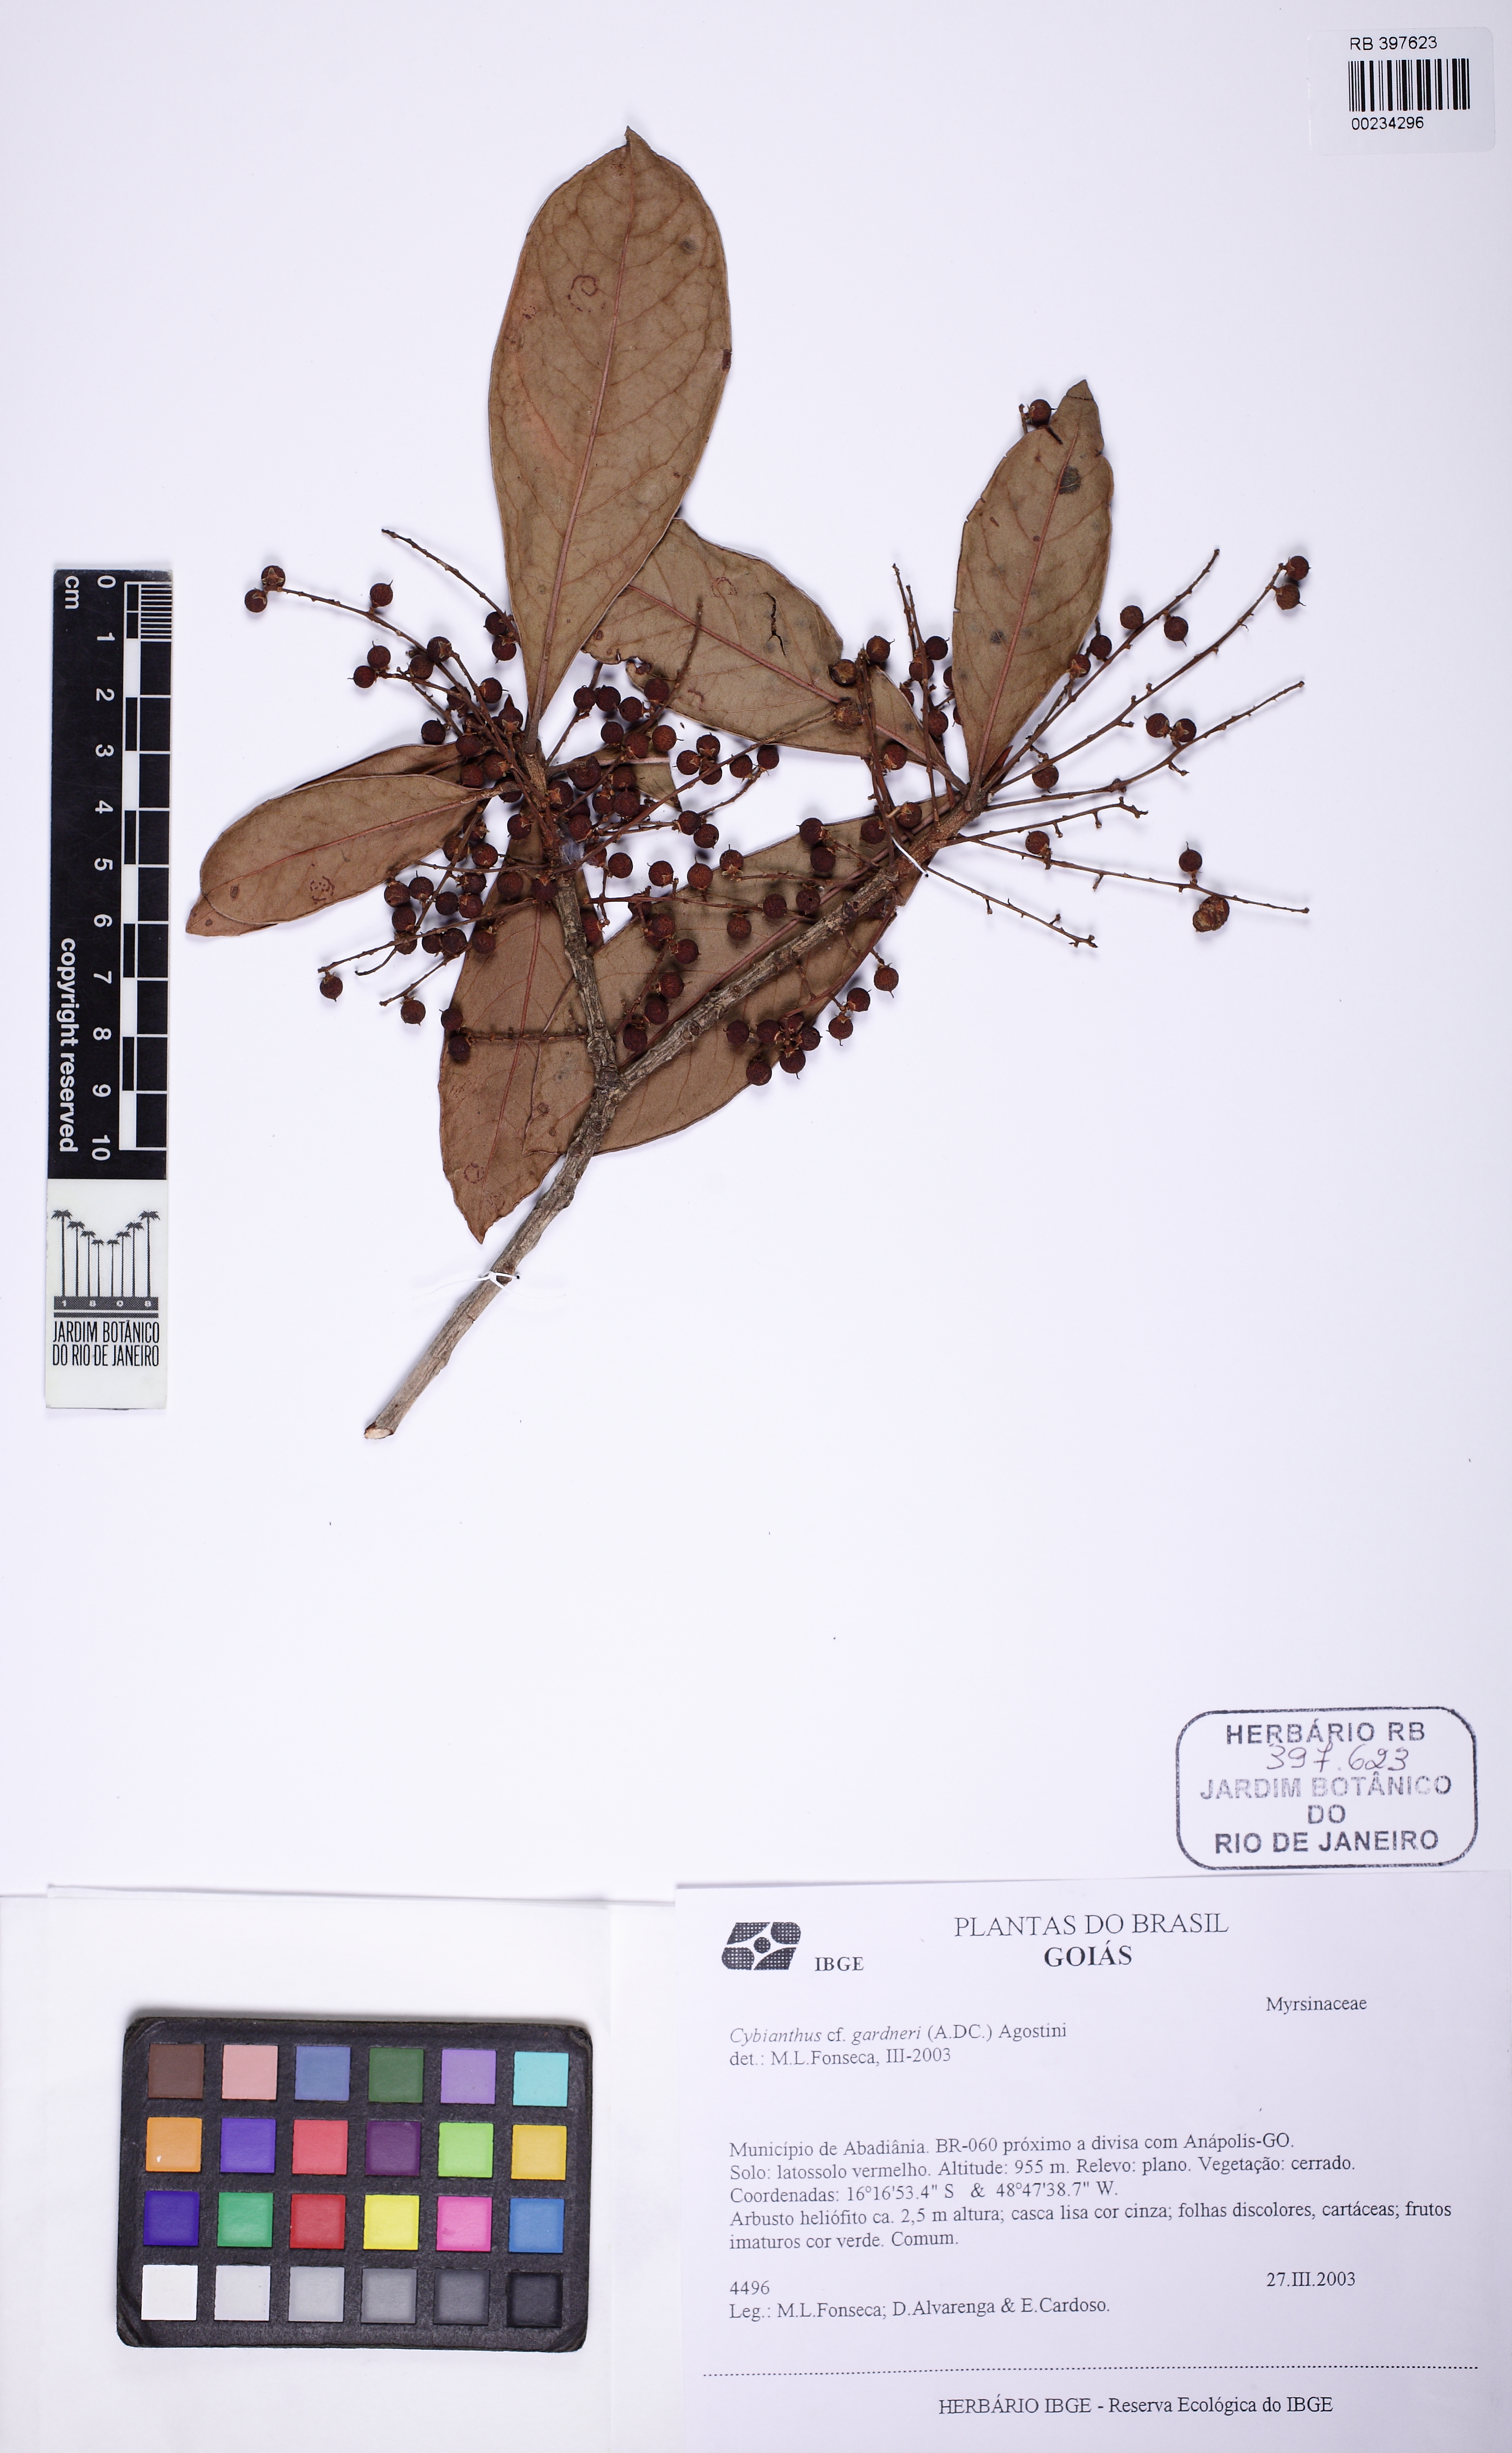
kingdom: Plantae
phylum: Tracheophyta
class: Magnoliopsida
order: Ericales
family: Primulaceae
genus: Cybianthus
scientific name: Cybianthus gardneri
